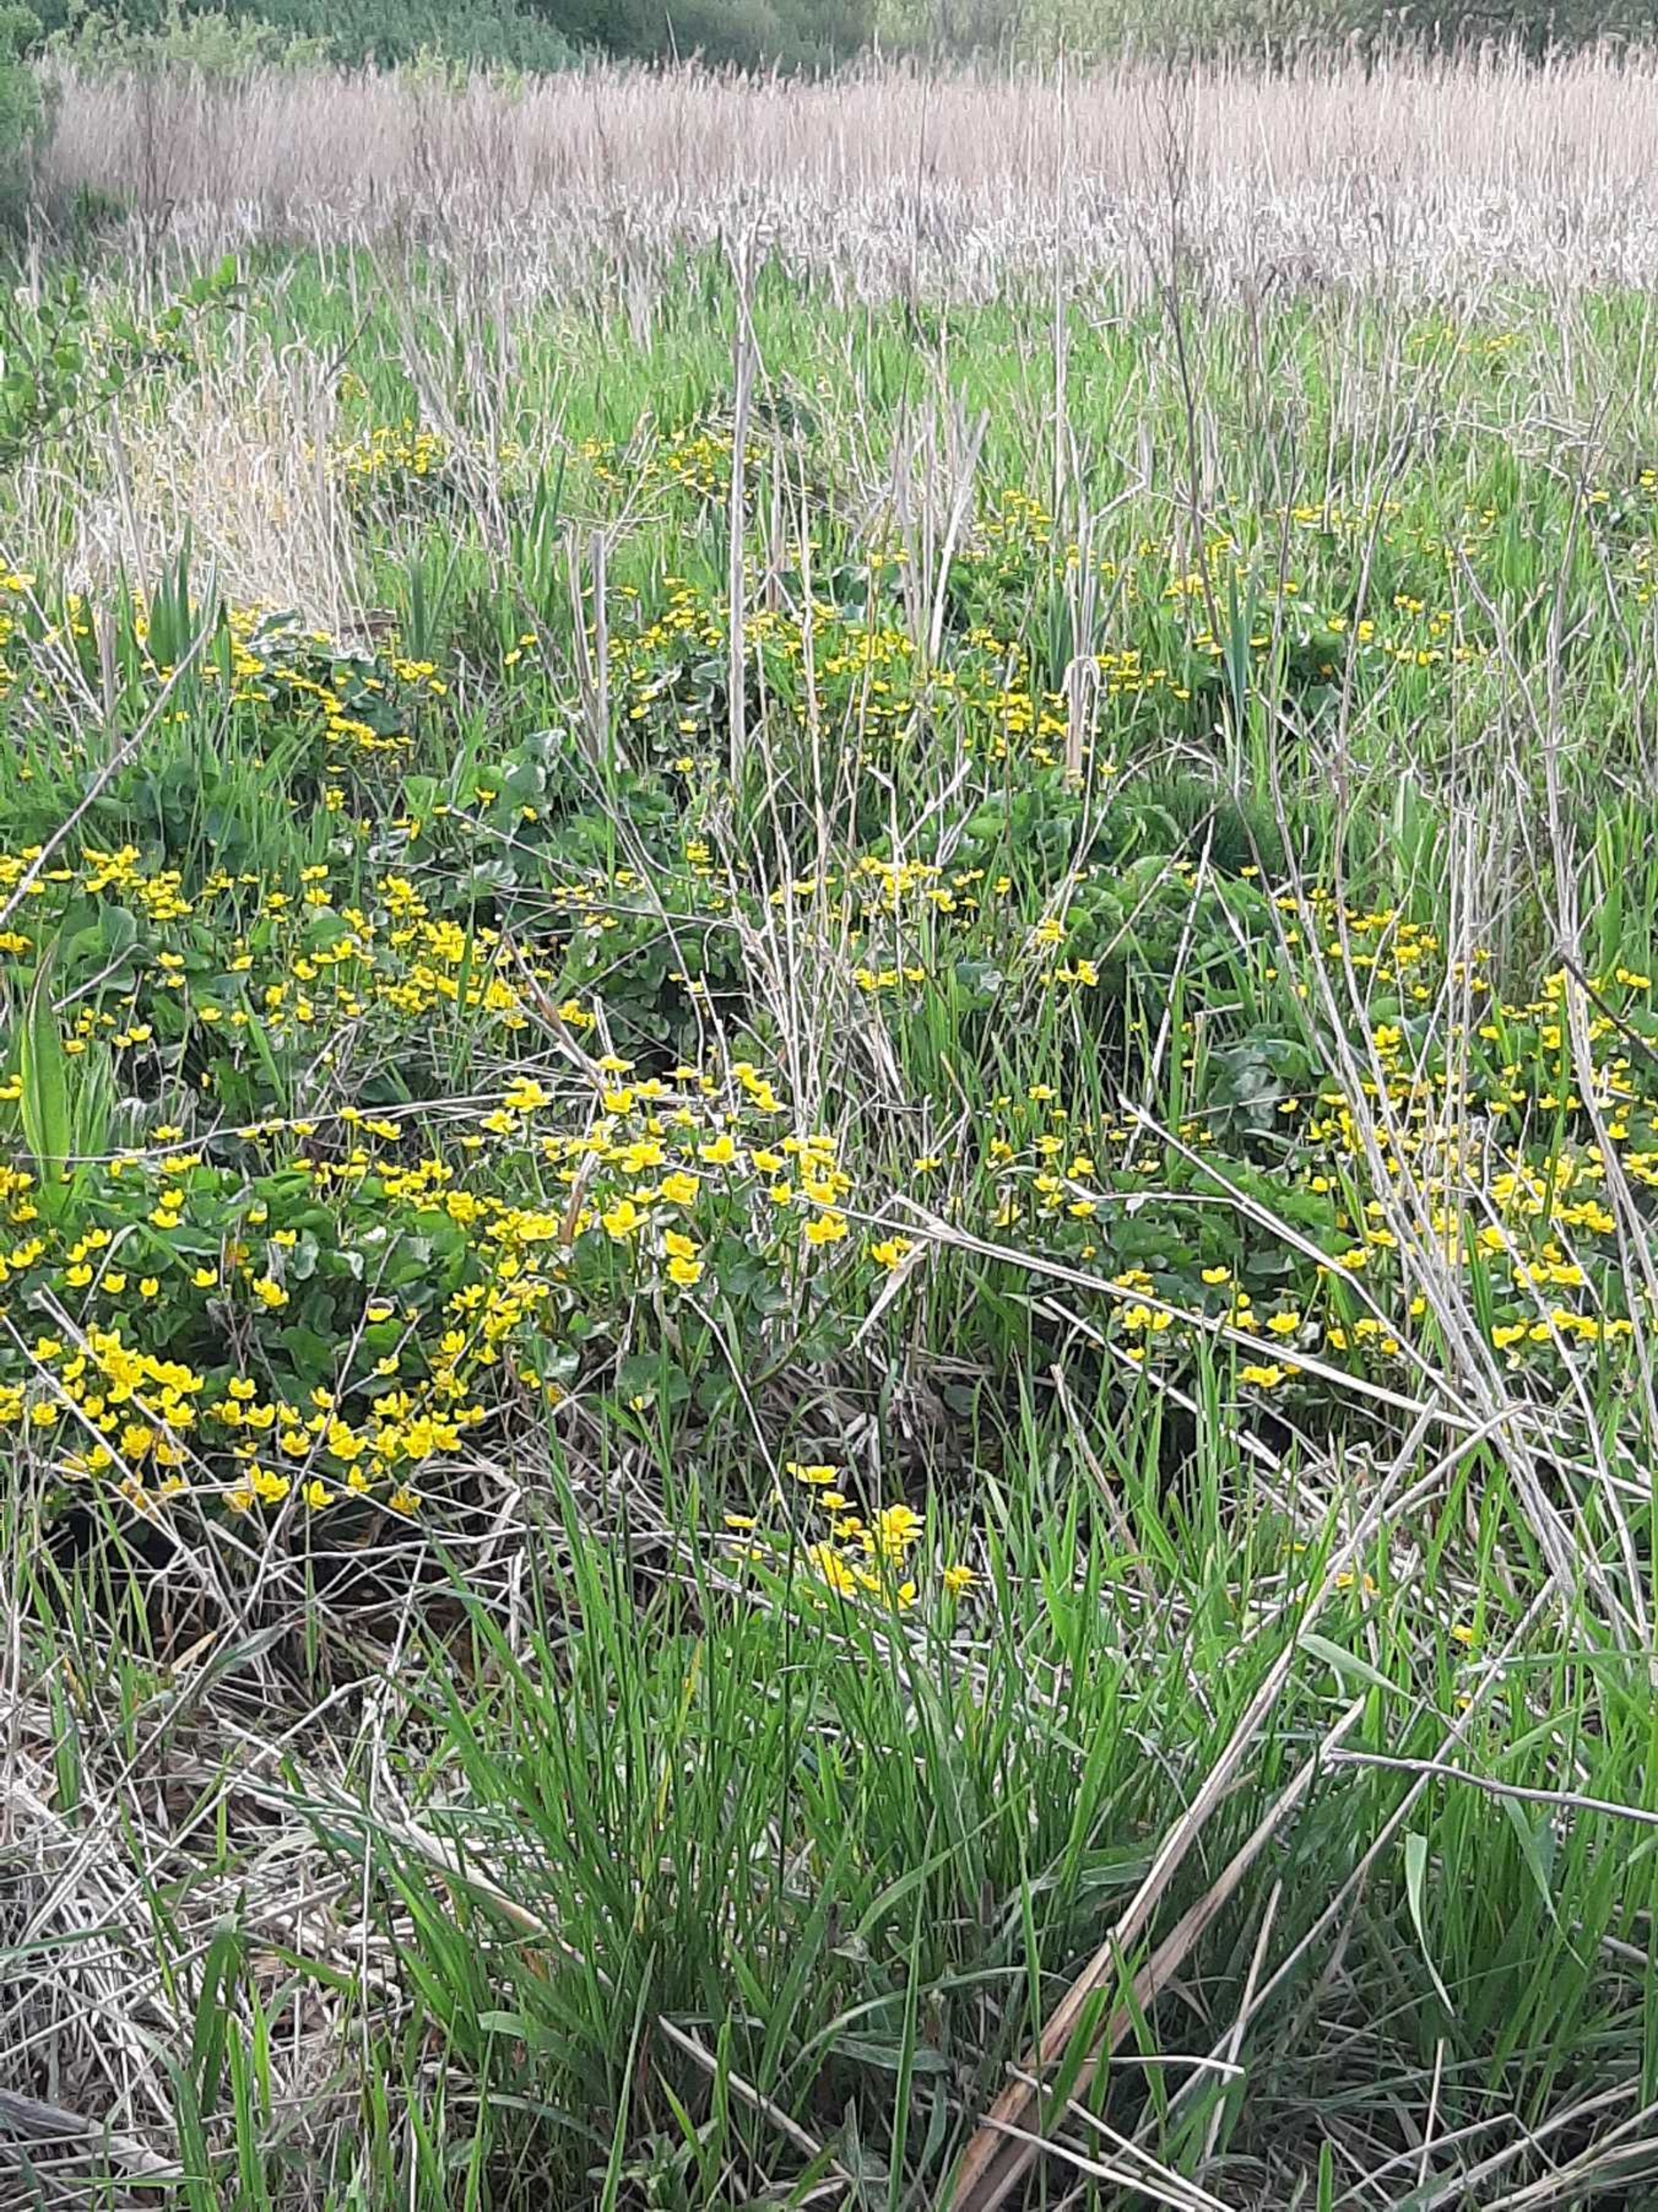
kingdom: Plantae
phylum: Tracheophyta
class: Magnoliopsida
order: Ranunculales
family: Ranunculaceae
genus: Caltha
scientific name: Caltha palustris
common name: Eng-kabbeleje
